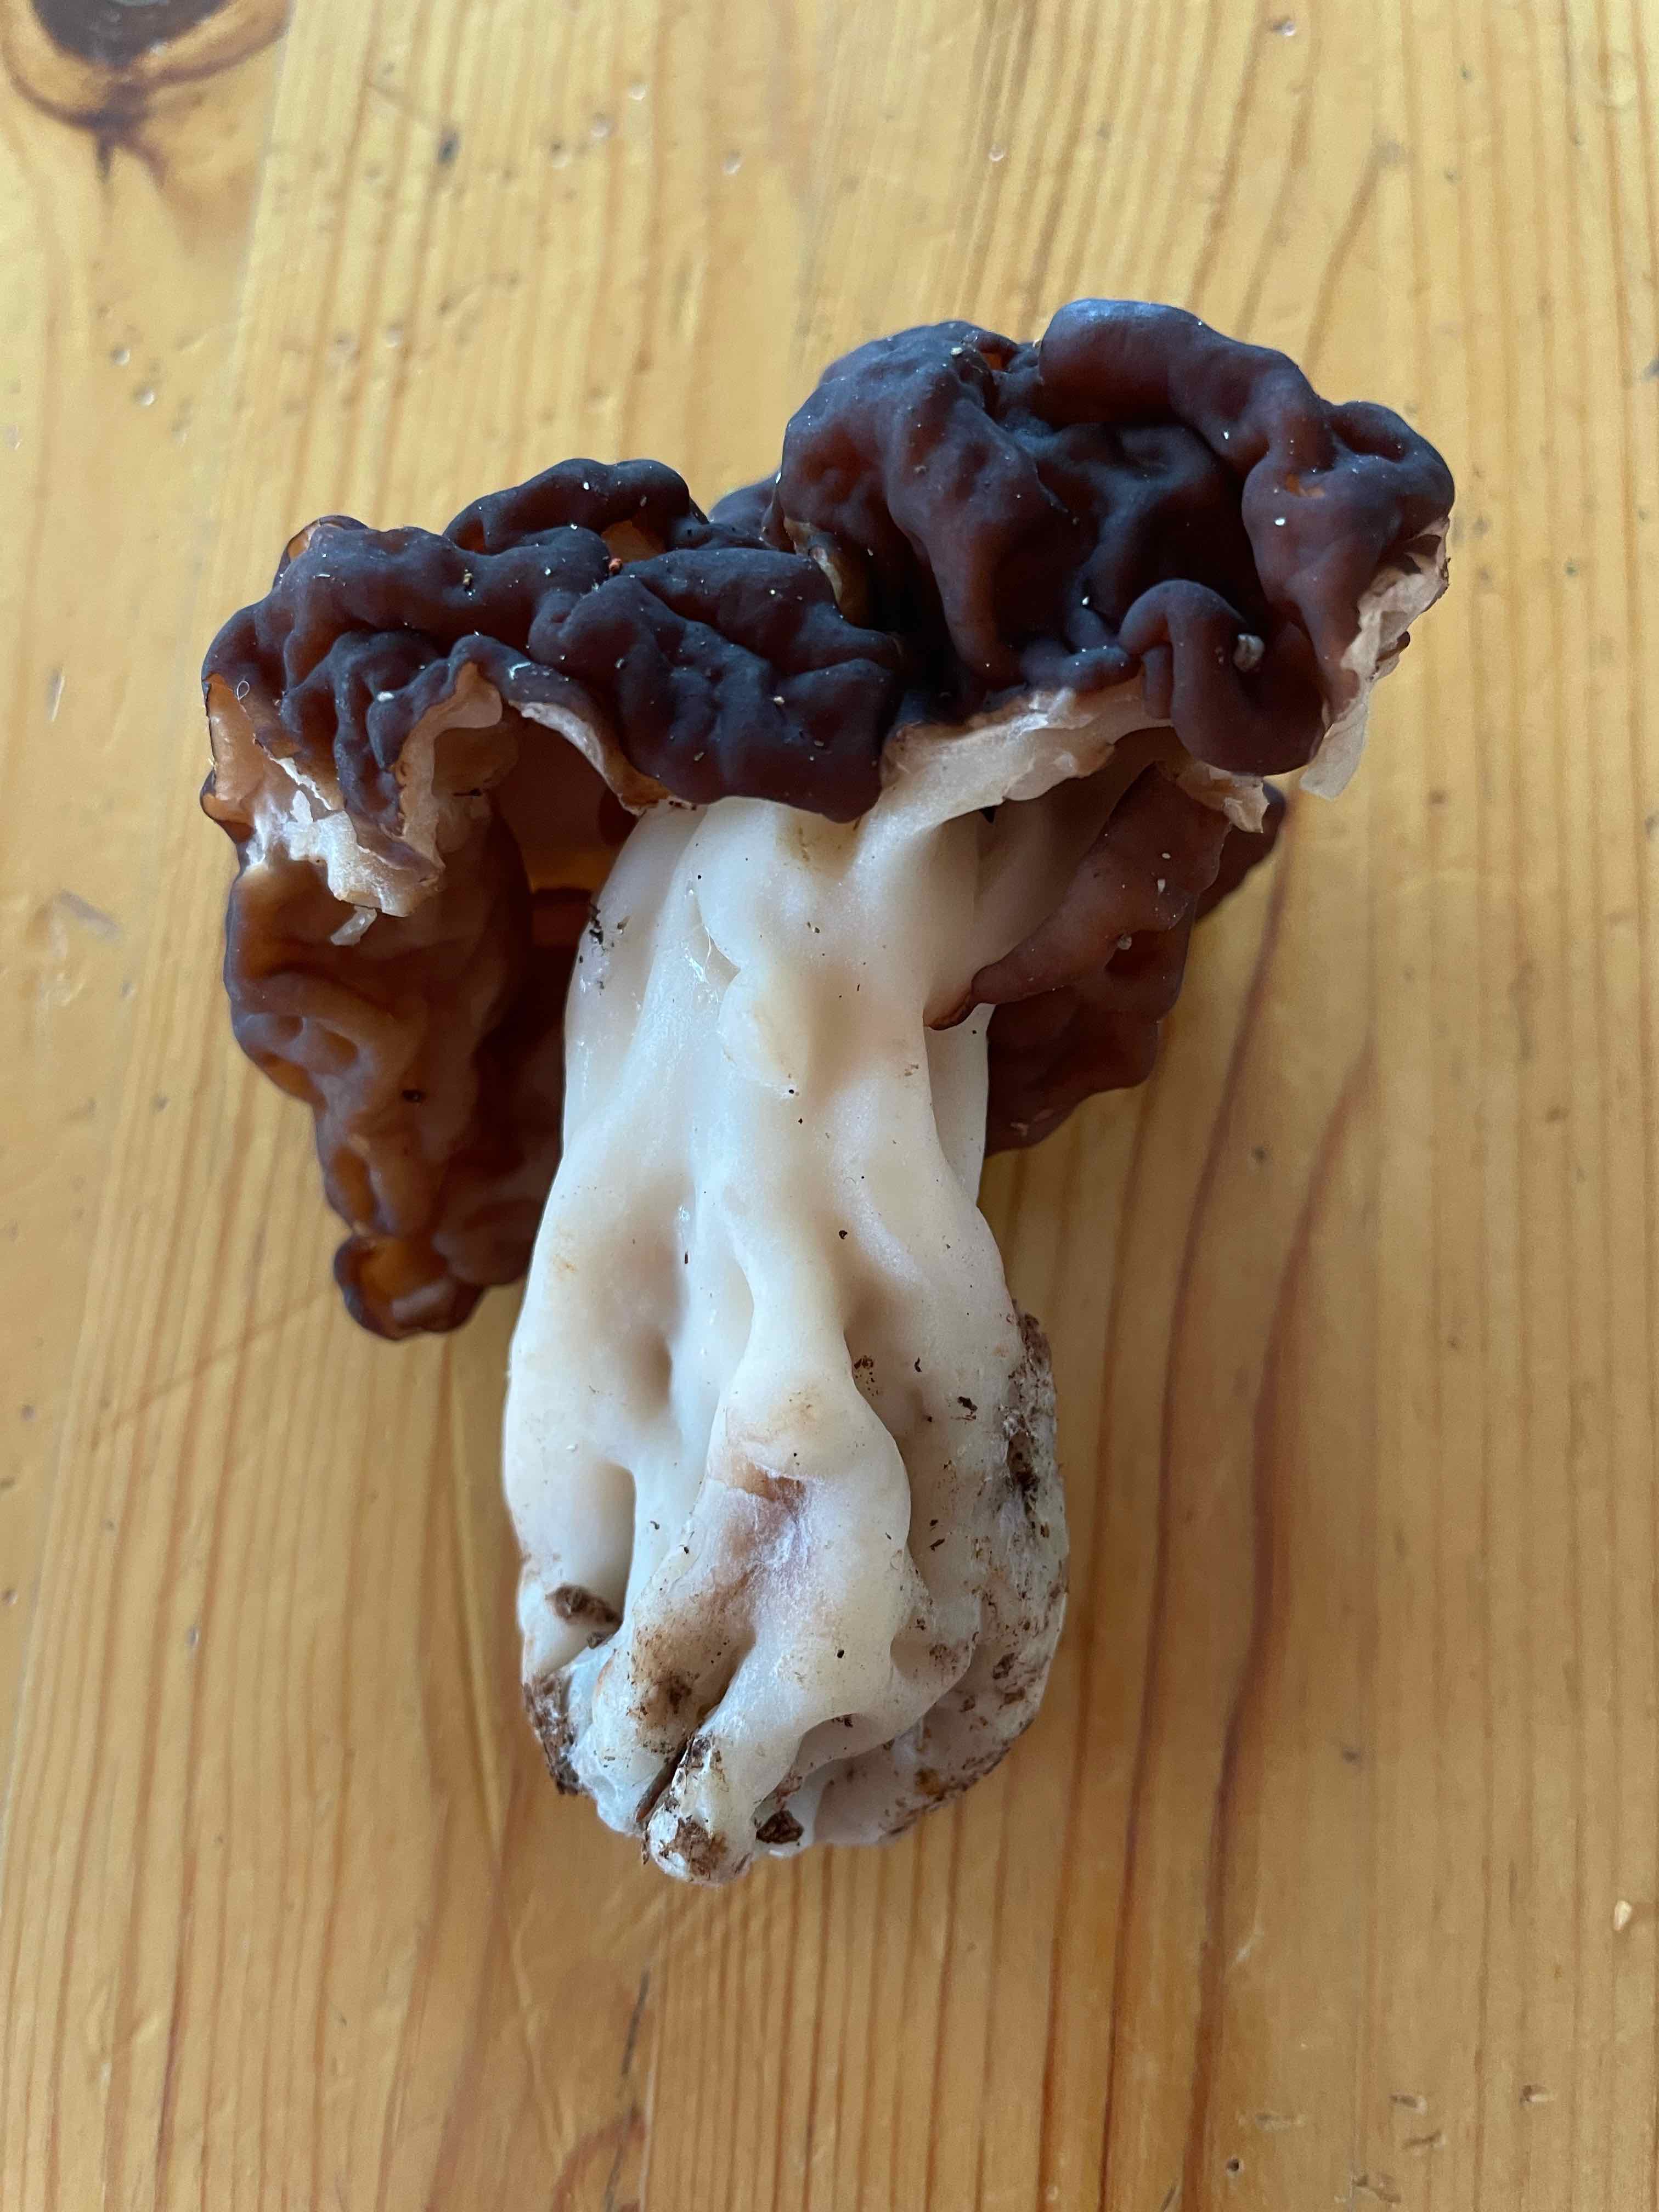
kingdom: Fungi
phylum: Ascomycota
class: Pezizomycetes
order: Pezizales
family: Discinaceae
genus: Gyromitra
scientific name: Gyromitra esculenta
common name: ægte stenmorkel
